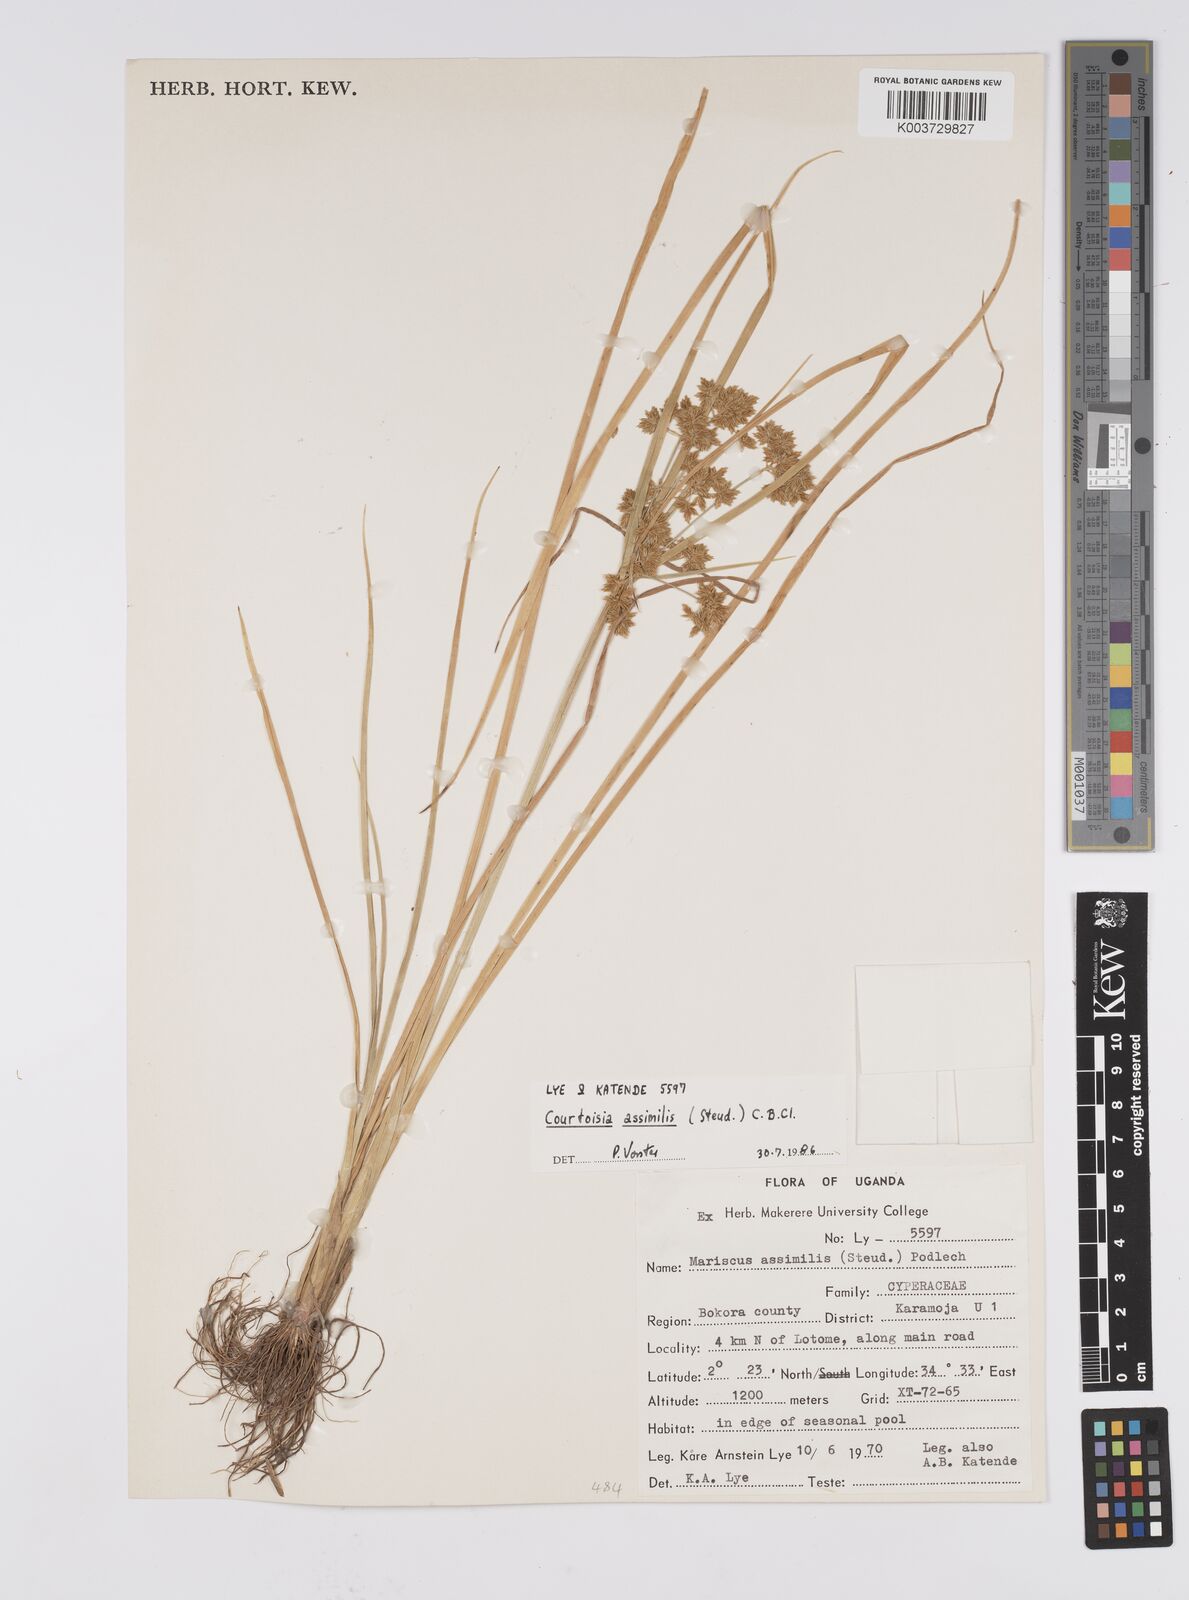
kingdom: Plantae
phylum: Tracheophyta
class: Liliopsida
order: Poales
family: Cyperaceae
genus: Cyperus
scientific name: Cyperus assimilis
